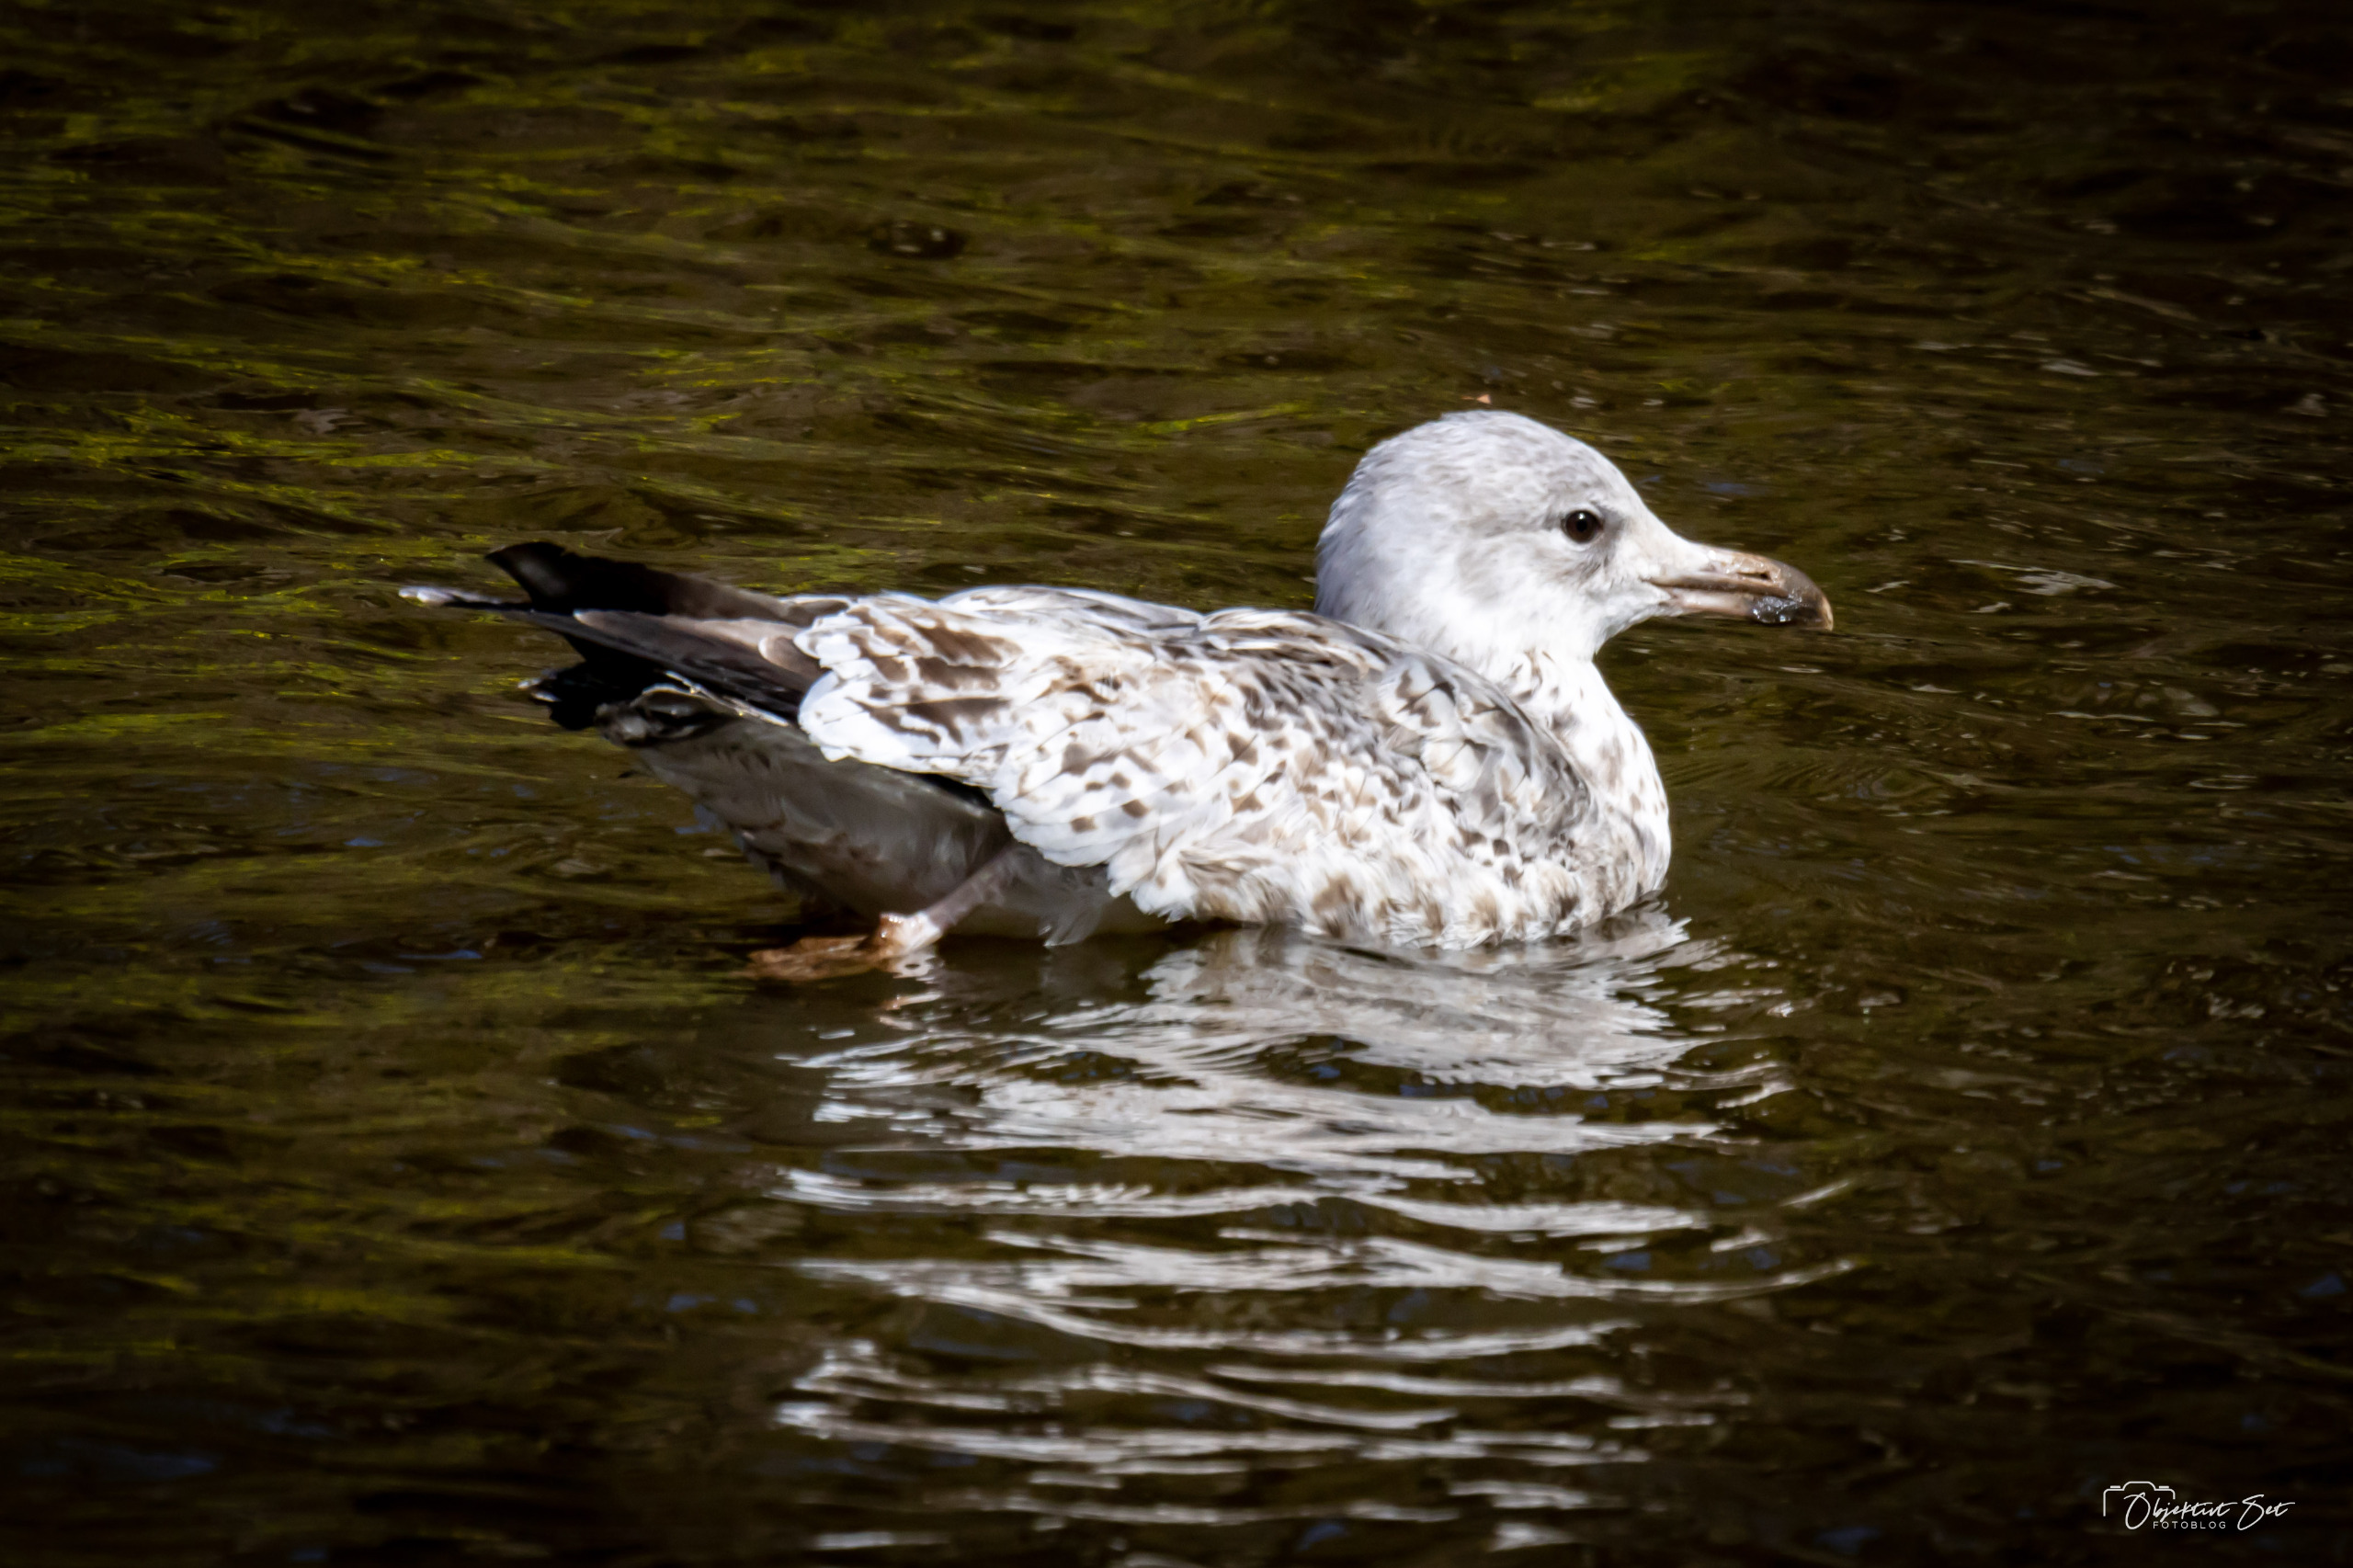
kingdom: Animalia
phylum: Chordata
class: Aves
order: Charadriiformes
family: Laridae
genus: Larus
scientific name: Larus argentatus
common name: Sølvmåge
